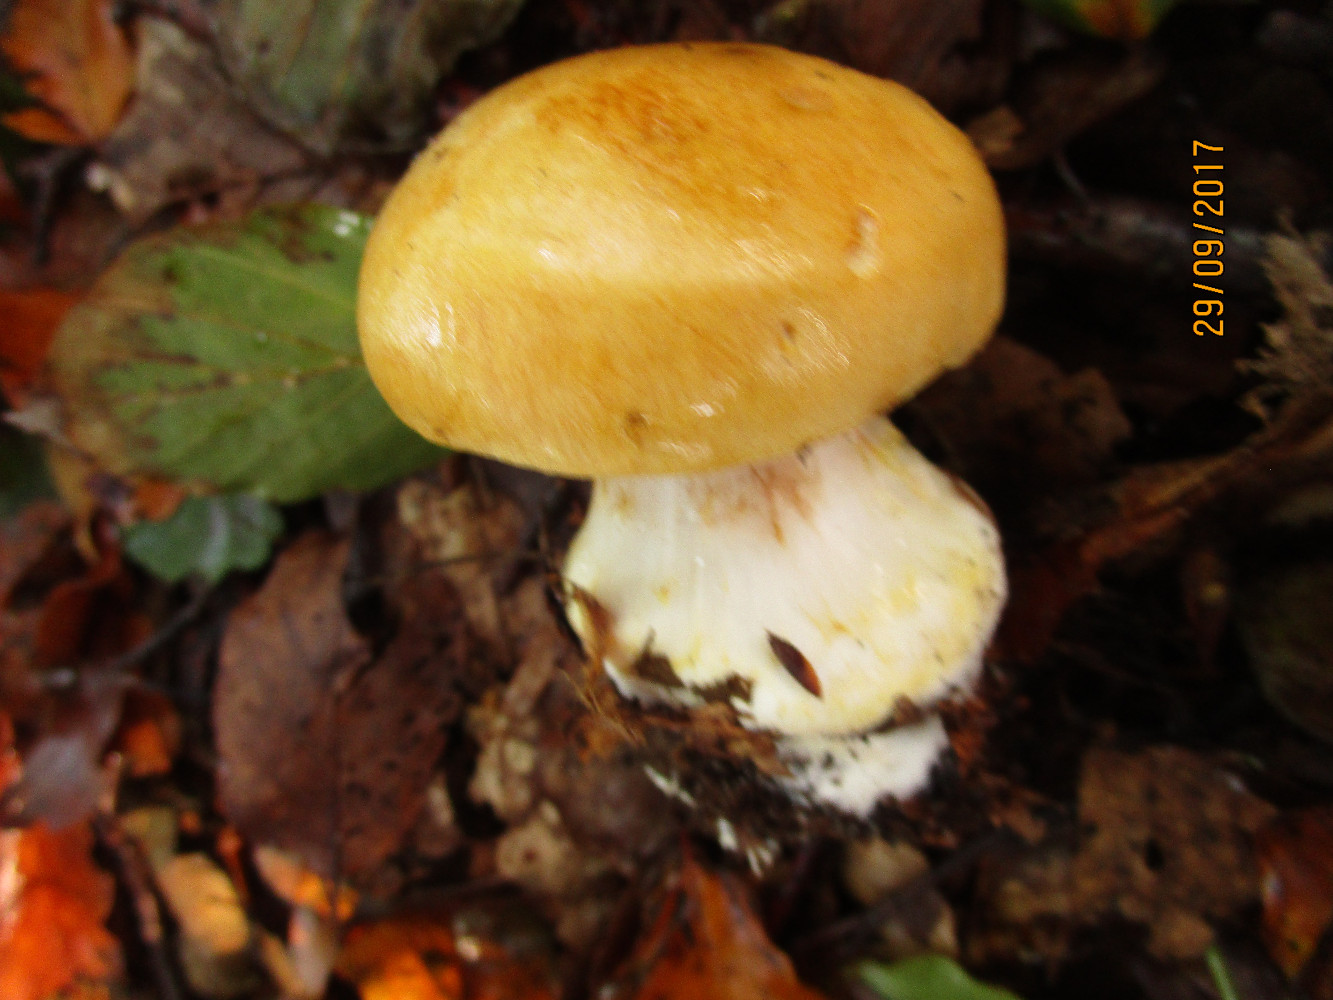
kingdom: Fungi
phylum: Basidiomycota
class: Agaricomycetes
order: Agaricales
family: Cortinariaceae
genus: Phlegmacium
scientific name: Phlegmacium rhizophorum
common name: finkornet slørhat
